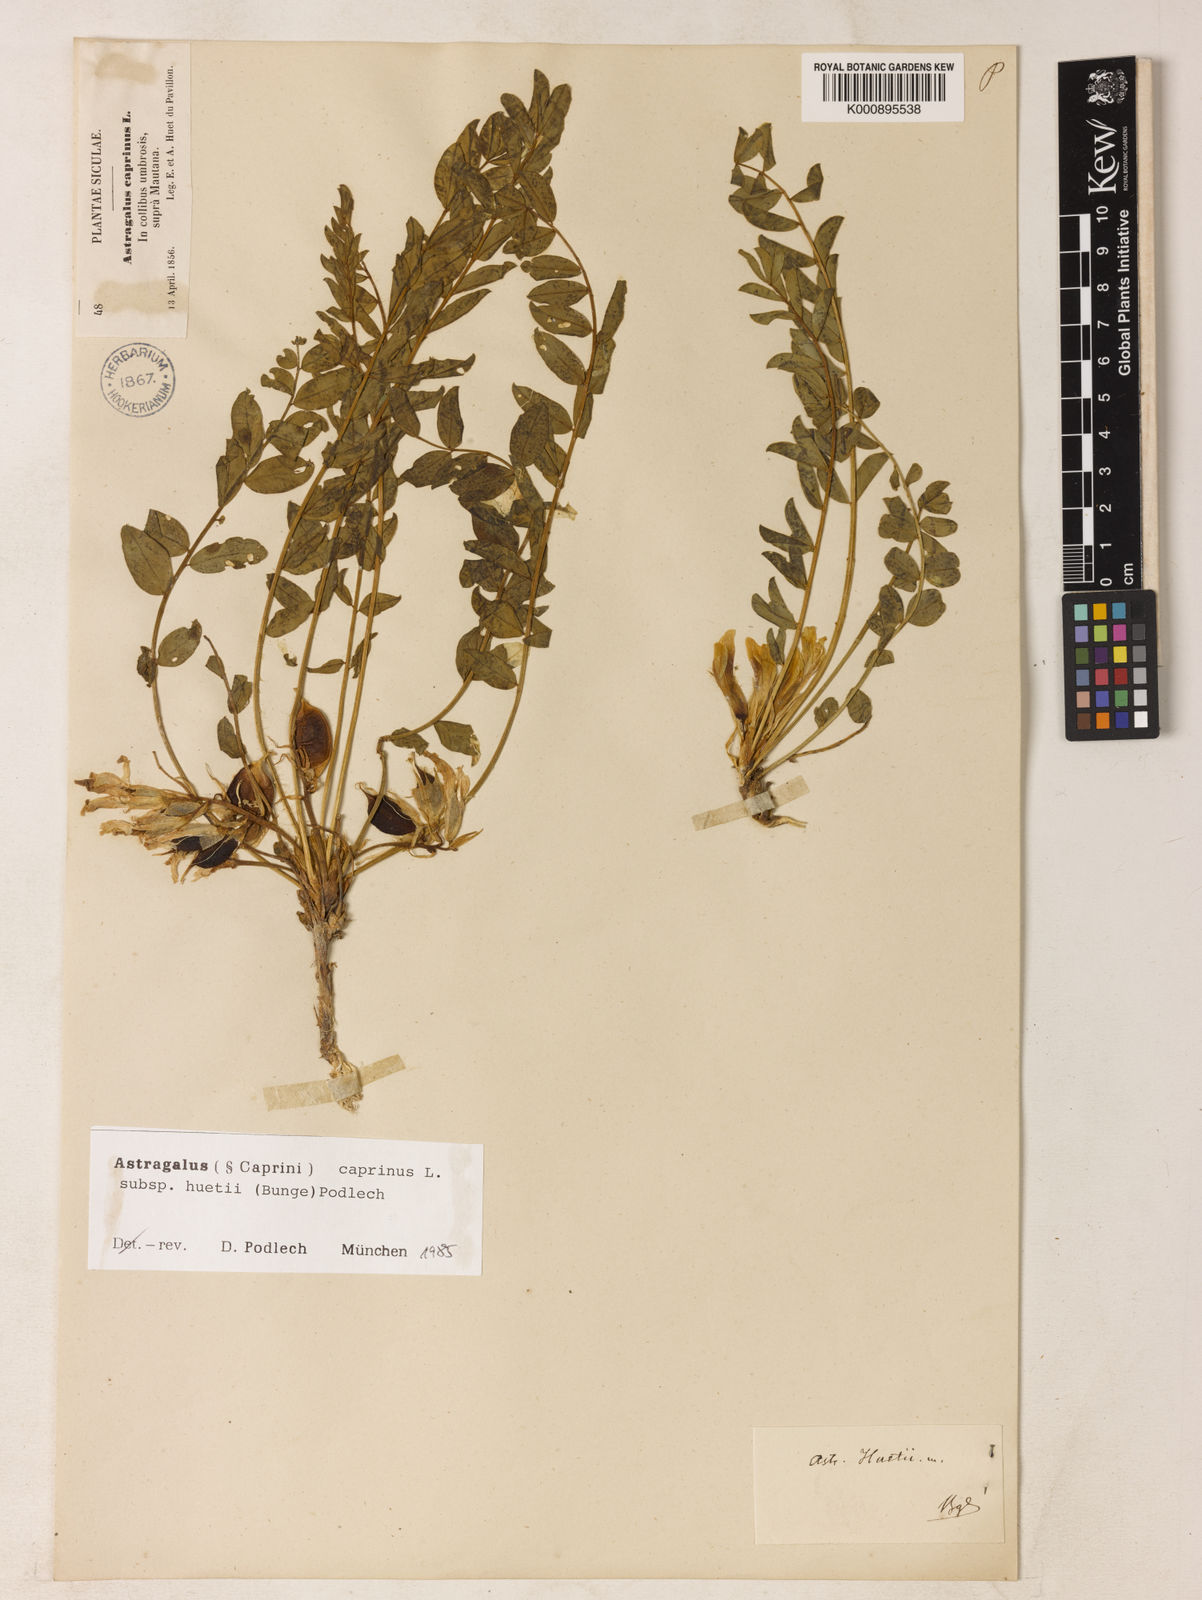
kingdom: Plantae
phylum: Tracheophyta
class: Magnoliopsida
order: Fabales
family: Fabaceae
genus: Astragalus
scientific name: Astragalus caprinus
